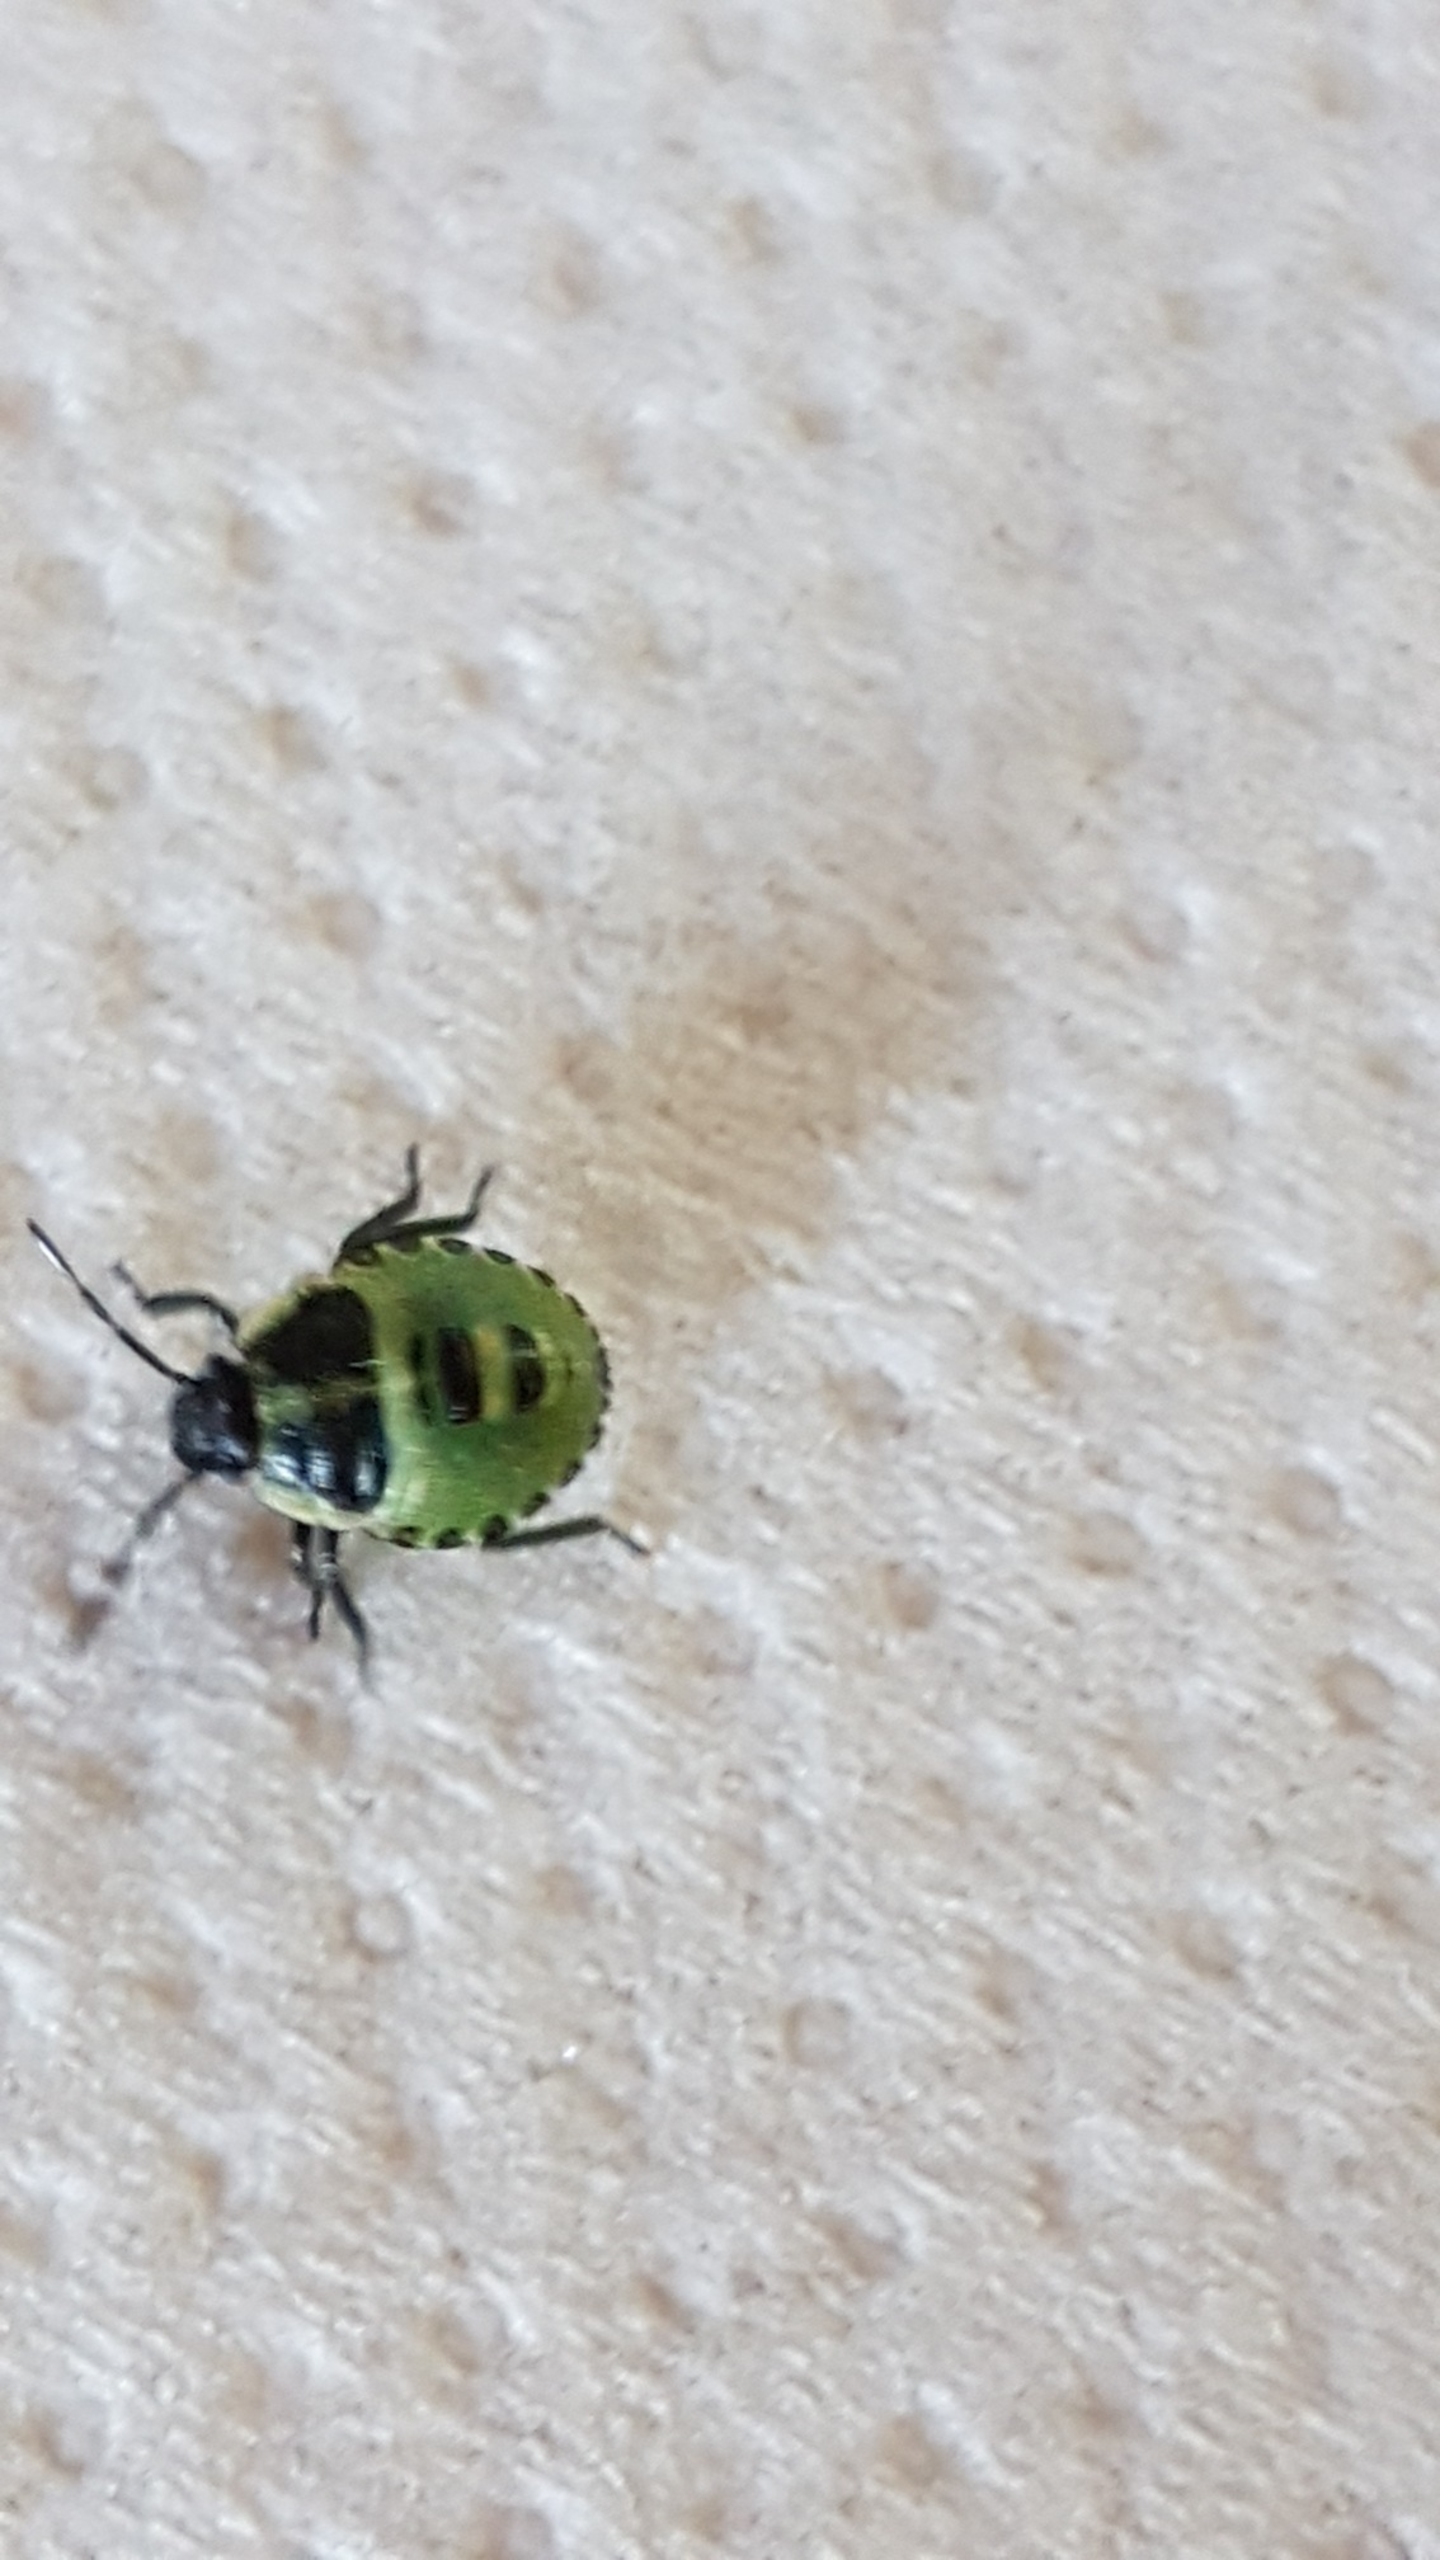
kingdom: Animalia
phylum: Arthropoda
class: Insecta
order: Hemiptera
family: Pentatomidae
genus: Palomena
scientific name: Palomena prasina
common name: Grøn bredtæge
